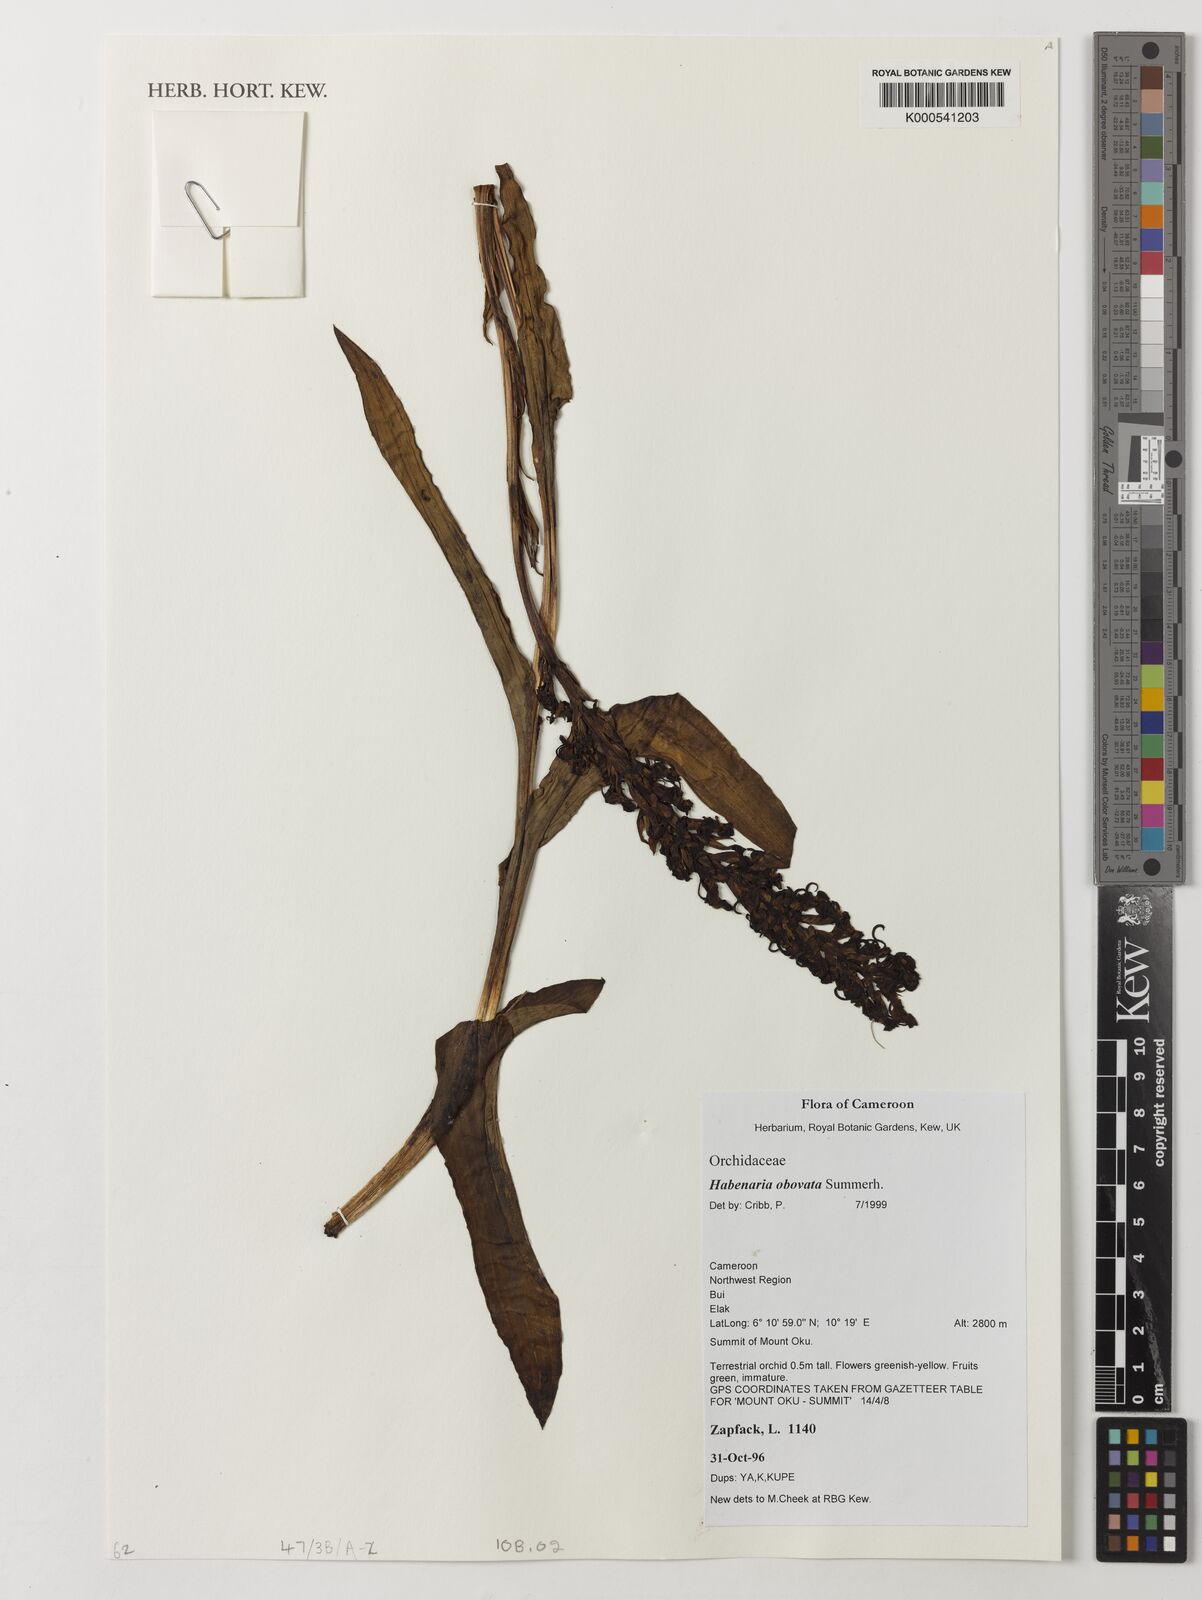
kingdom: Plantae
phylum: Tracheophyta
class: Liliopsida
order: Asparagales
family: Orchidaceae
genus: Habenaria
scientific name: Habenaria obovata
